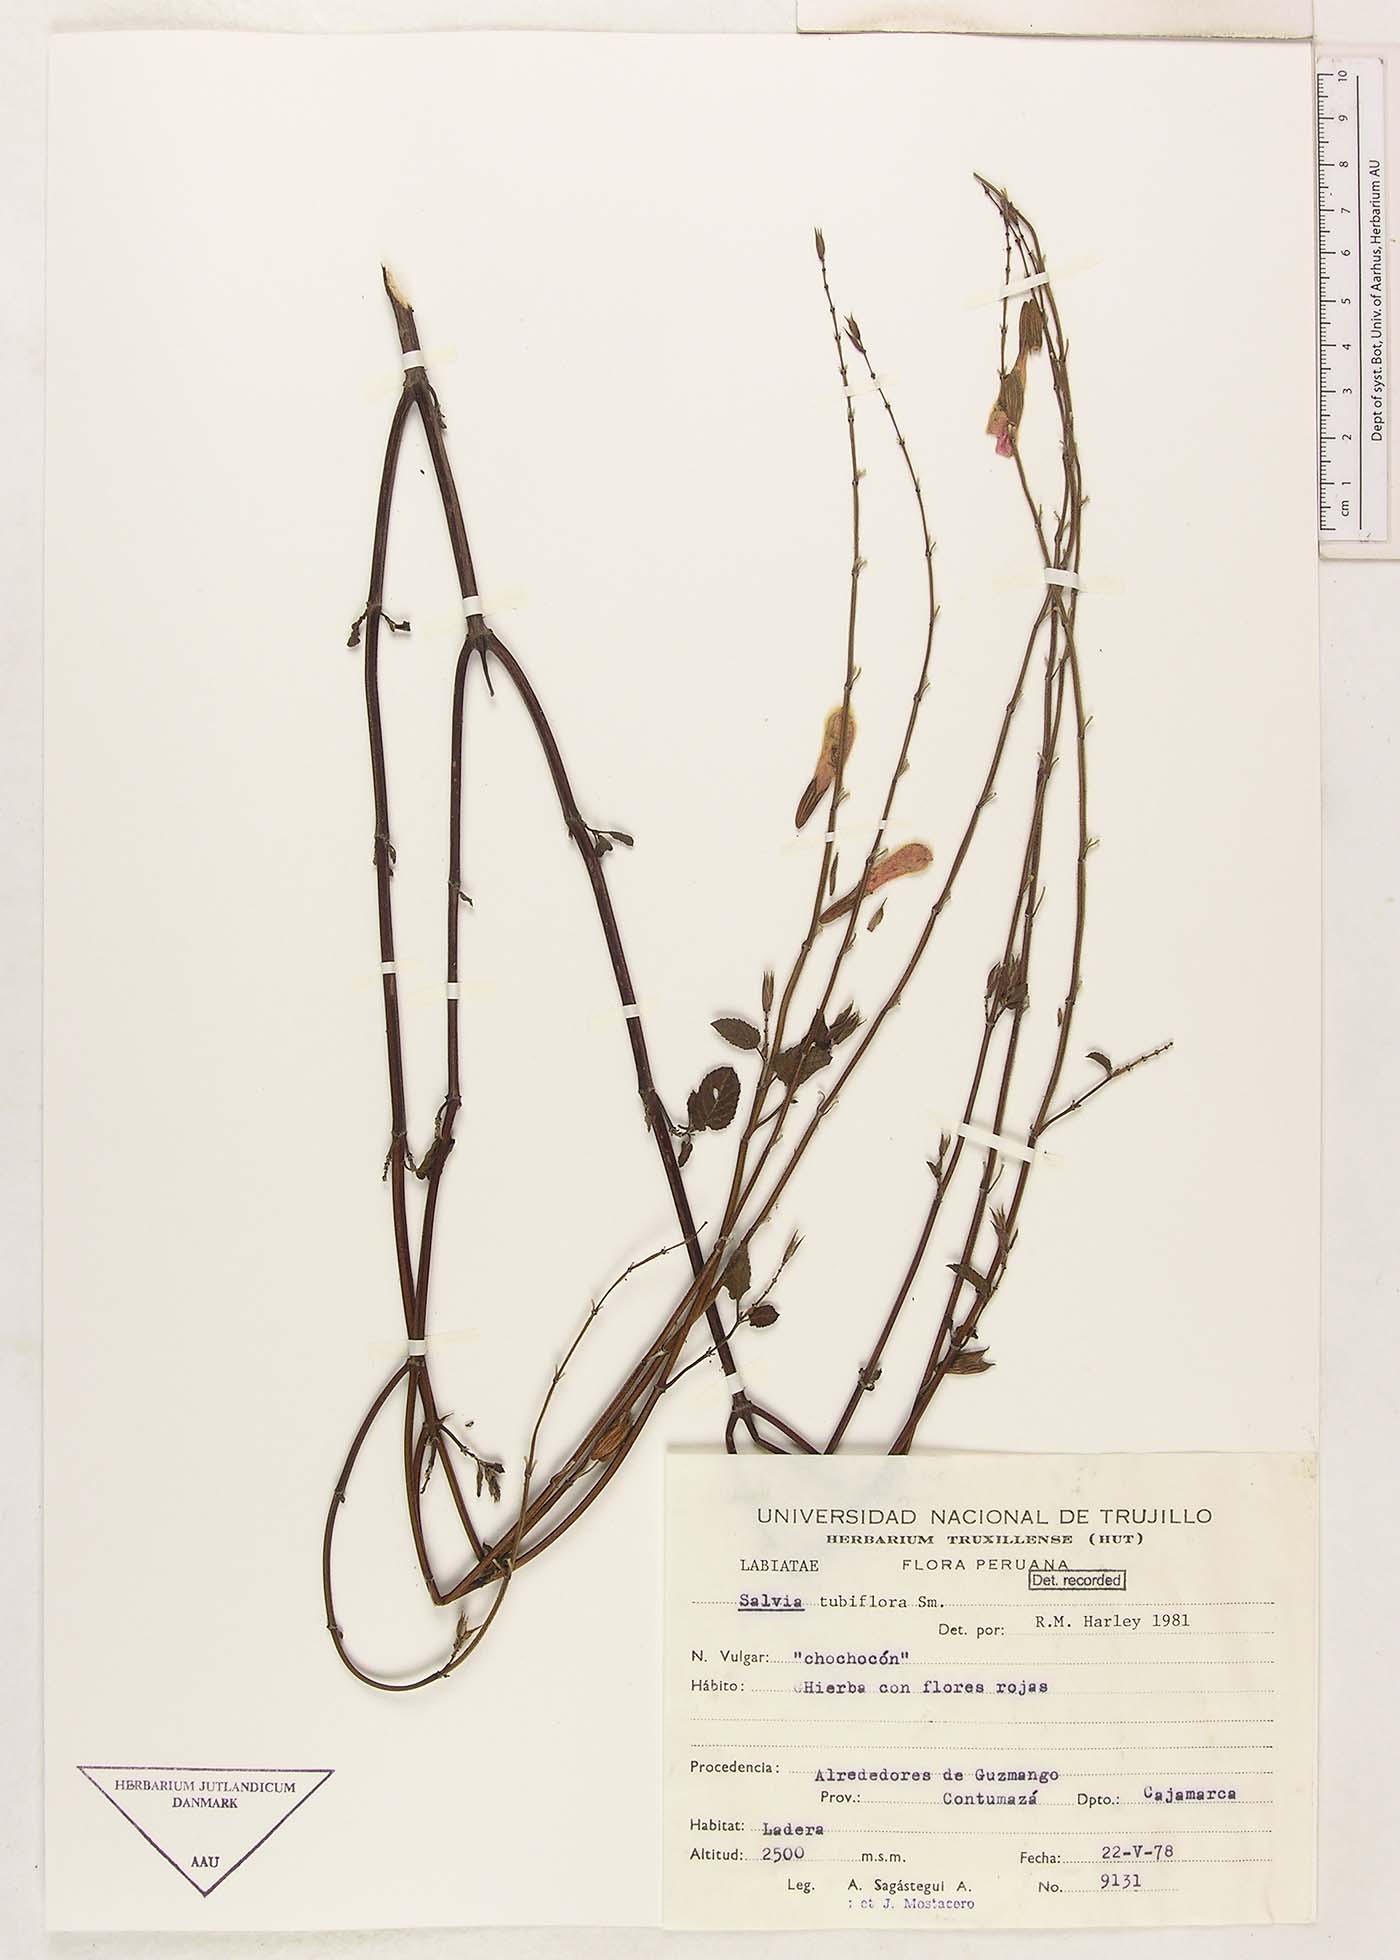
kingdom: Plantae
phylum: Tracheophyta
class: Magnoliopsida
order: Lamiales
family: Lamiaceae
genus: Salvia
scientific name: Salvia tubiflora
